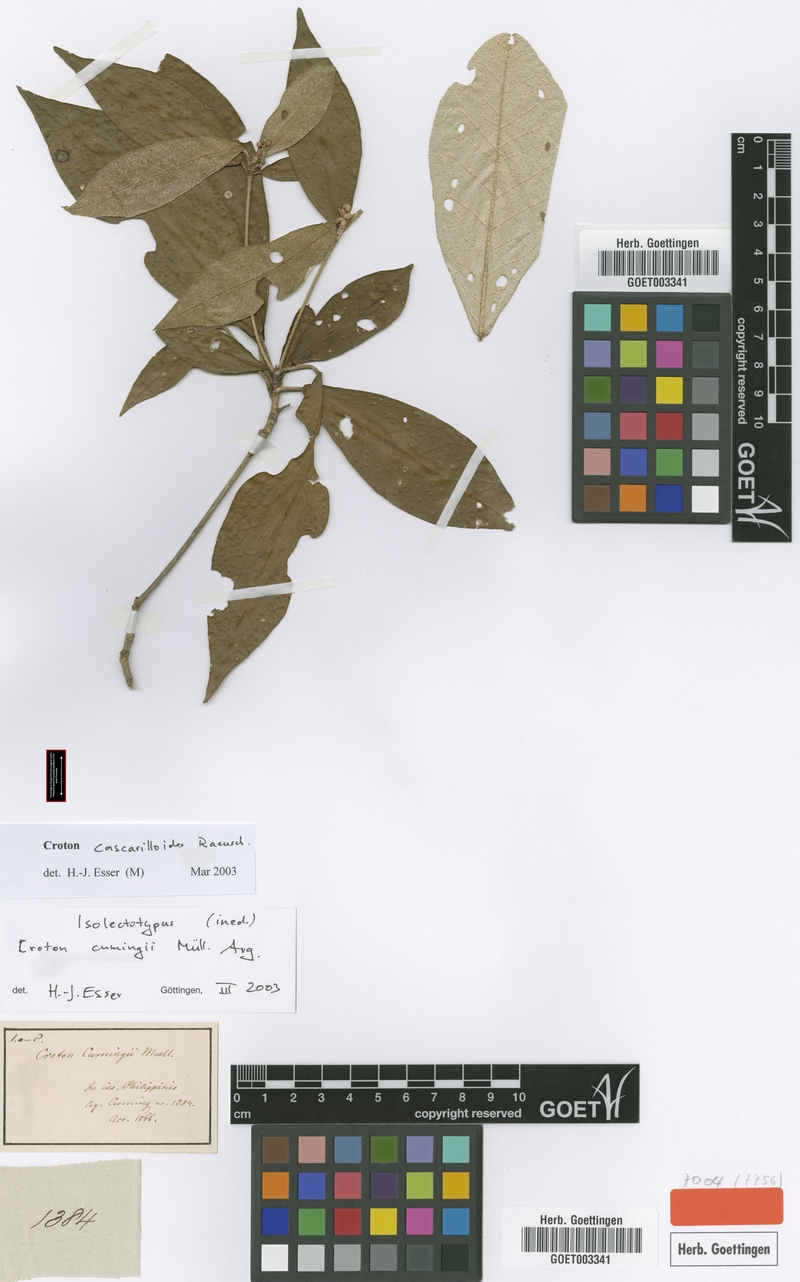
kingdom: Plantae
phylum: Tracheophyta
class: Magnoliopsida
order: Malpighiales
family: Euphorbiaceae
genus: Croton
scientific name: Croton cascarilloides
